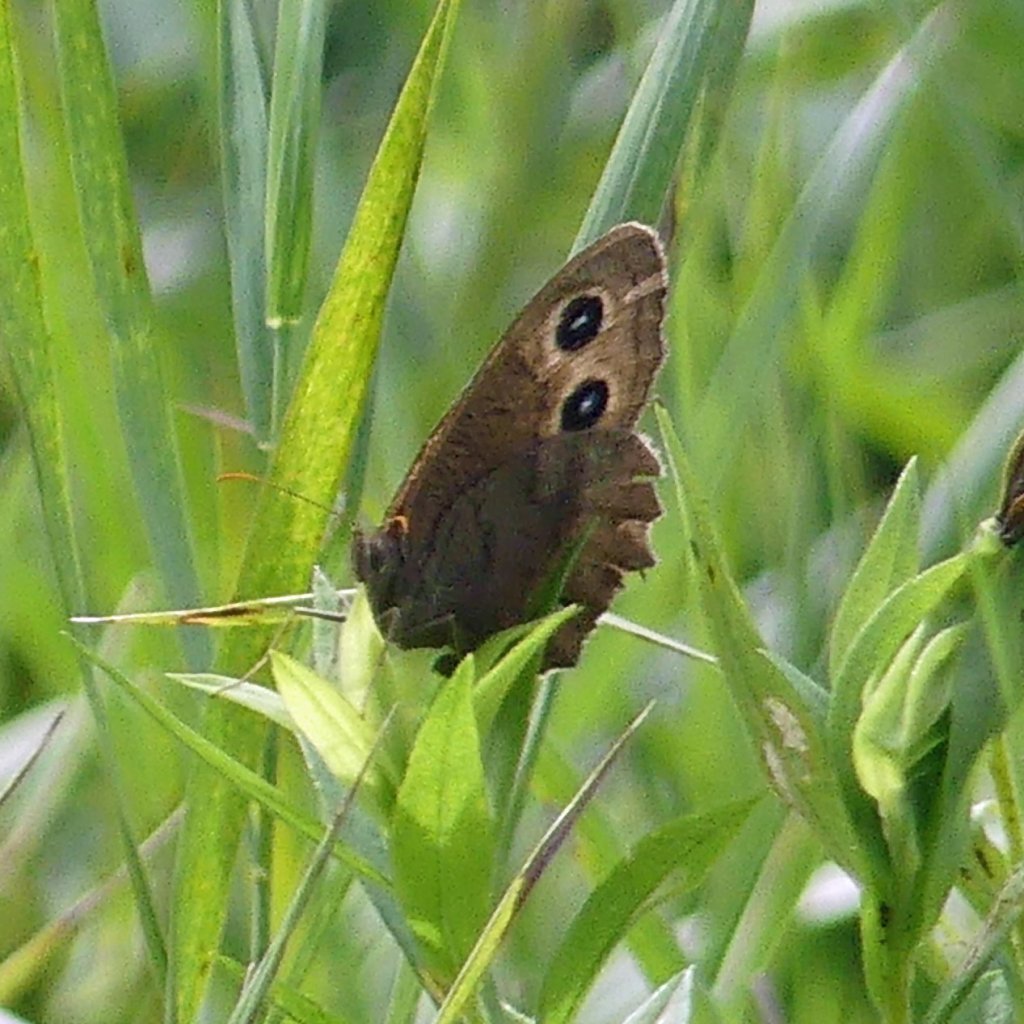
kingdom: Animalia
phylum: Arthropoda
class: Insecta
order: Lepidoptera
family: Nymphalidae
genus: Cercyonis
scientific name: Cercyonis pegala
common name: Common Wood-Nymph
